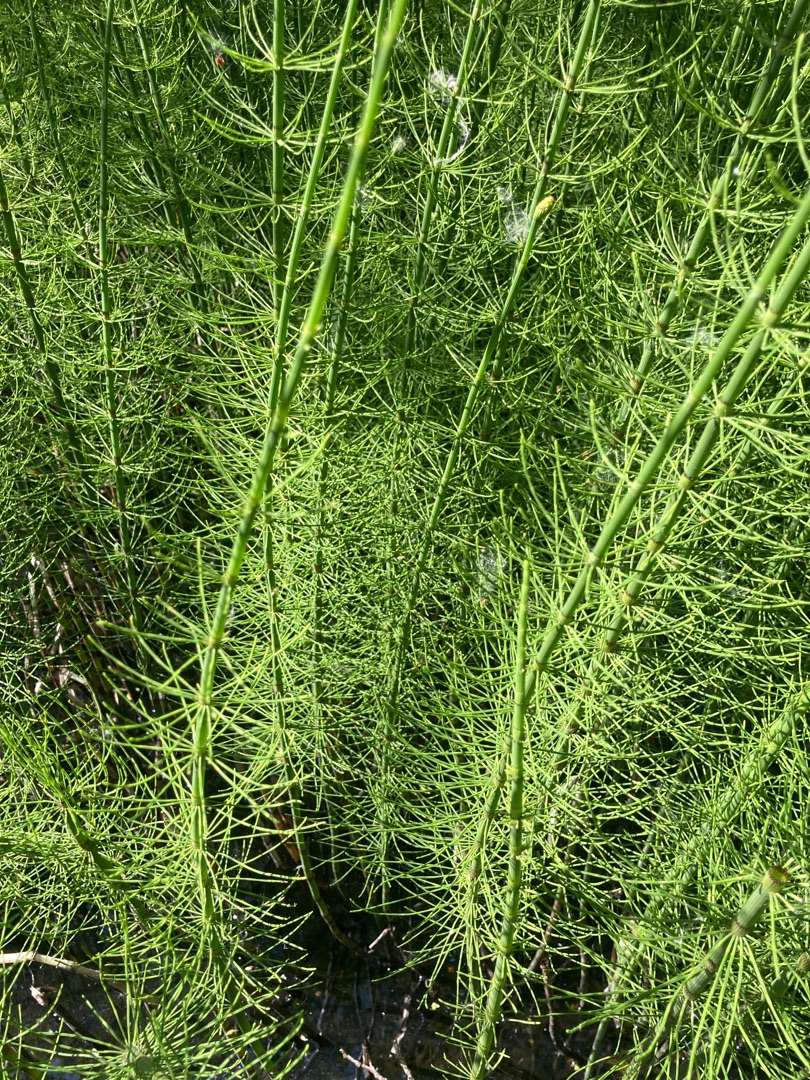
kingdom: Plantae
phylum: Tracheophyta
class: Polypodiopsida
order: Equisetales
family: Equisetaceae
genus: Equisetum
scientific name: Equisetum fluviatile
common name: Dynd-padderok
